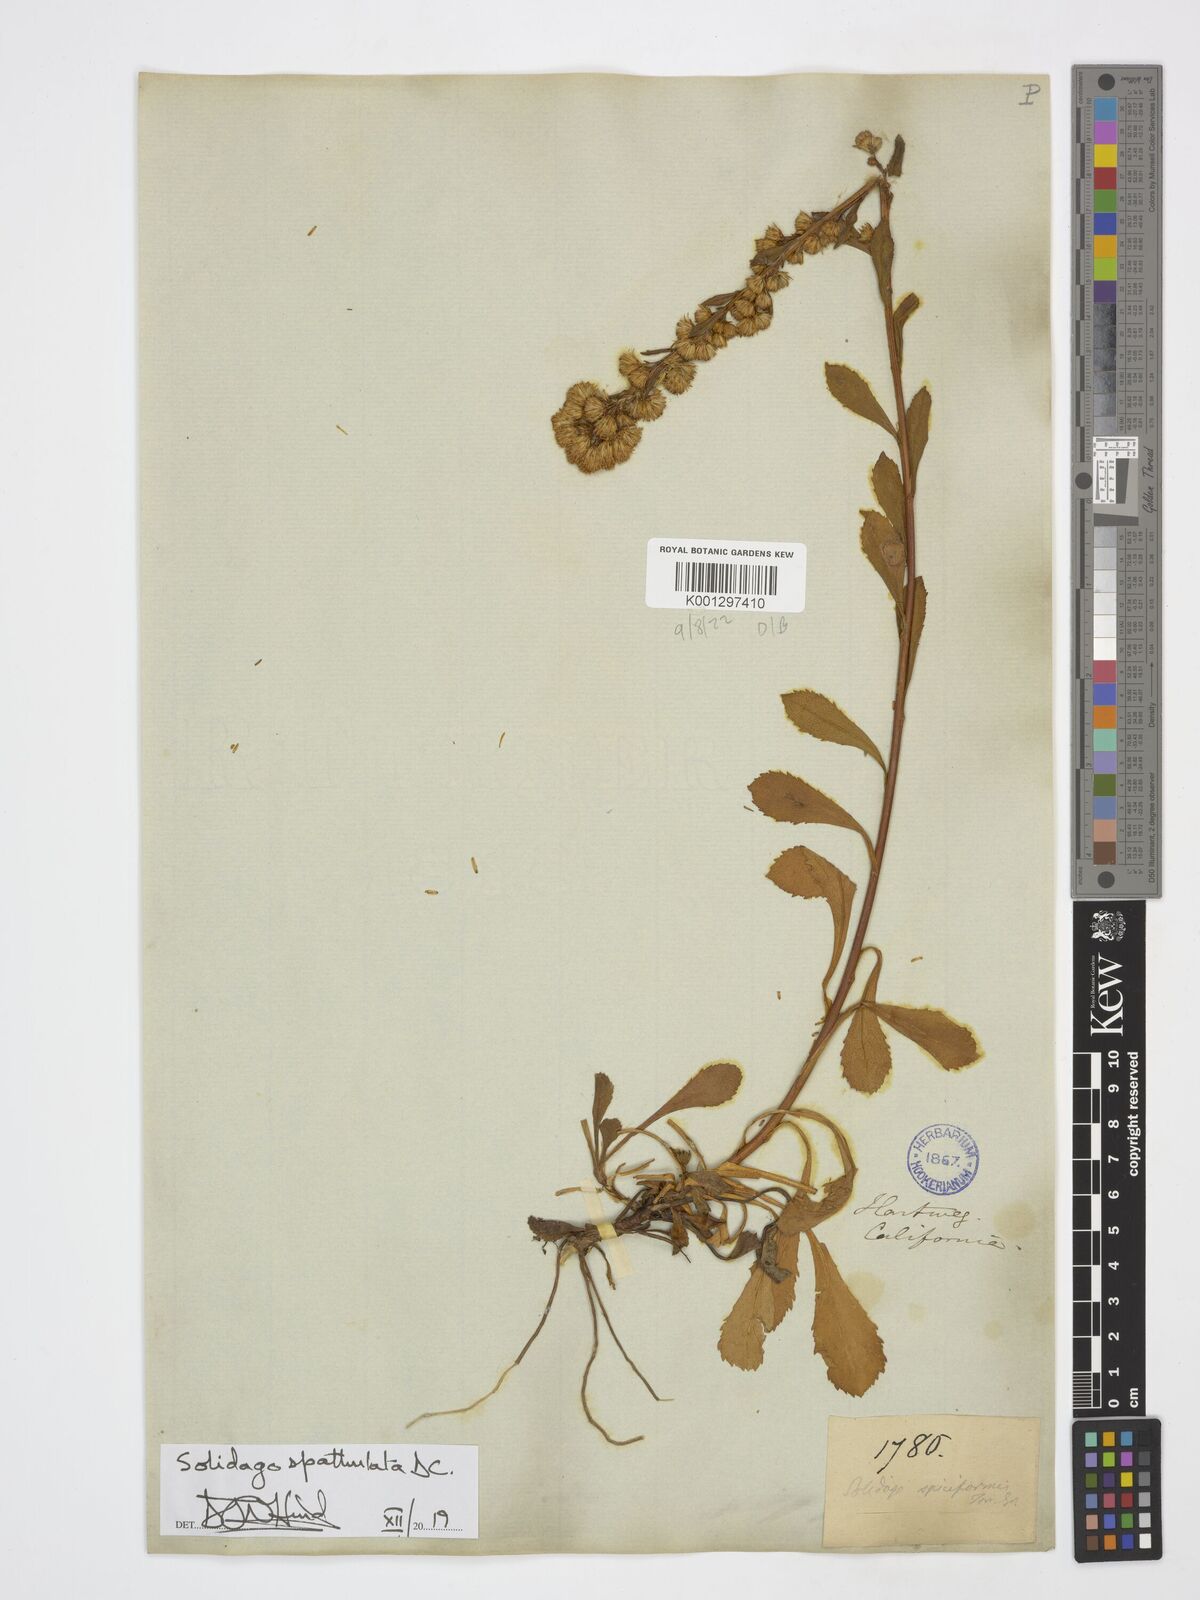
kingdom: Plantae
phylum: Tracheophyta
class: Magnoliopsida
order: Asterales
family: Asteraceae
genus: Solidago
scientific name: Solidago spathulata
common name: Coast goldenrod
